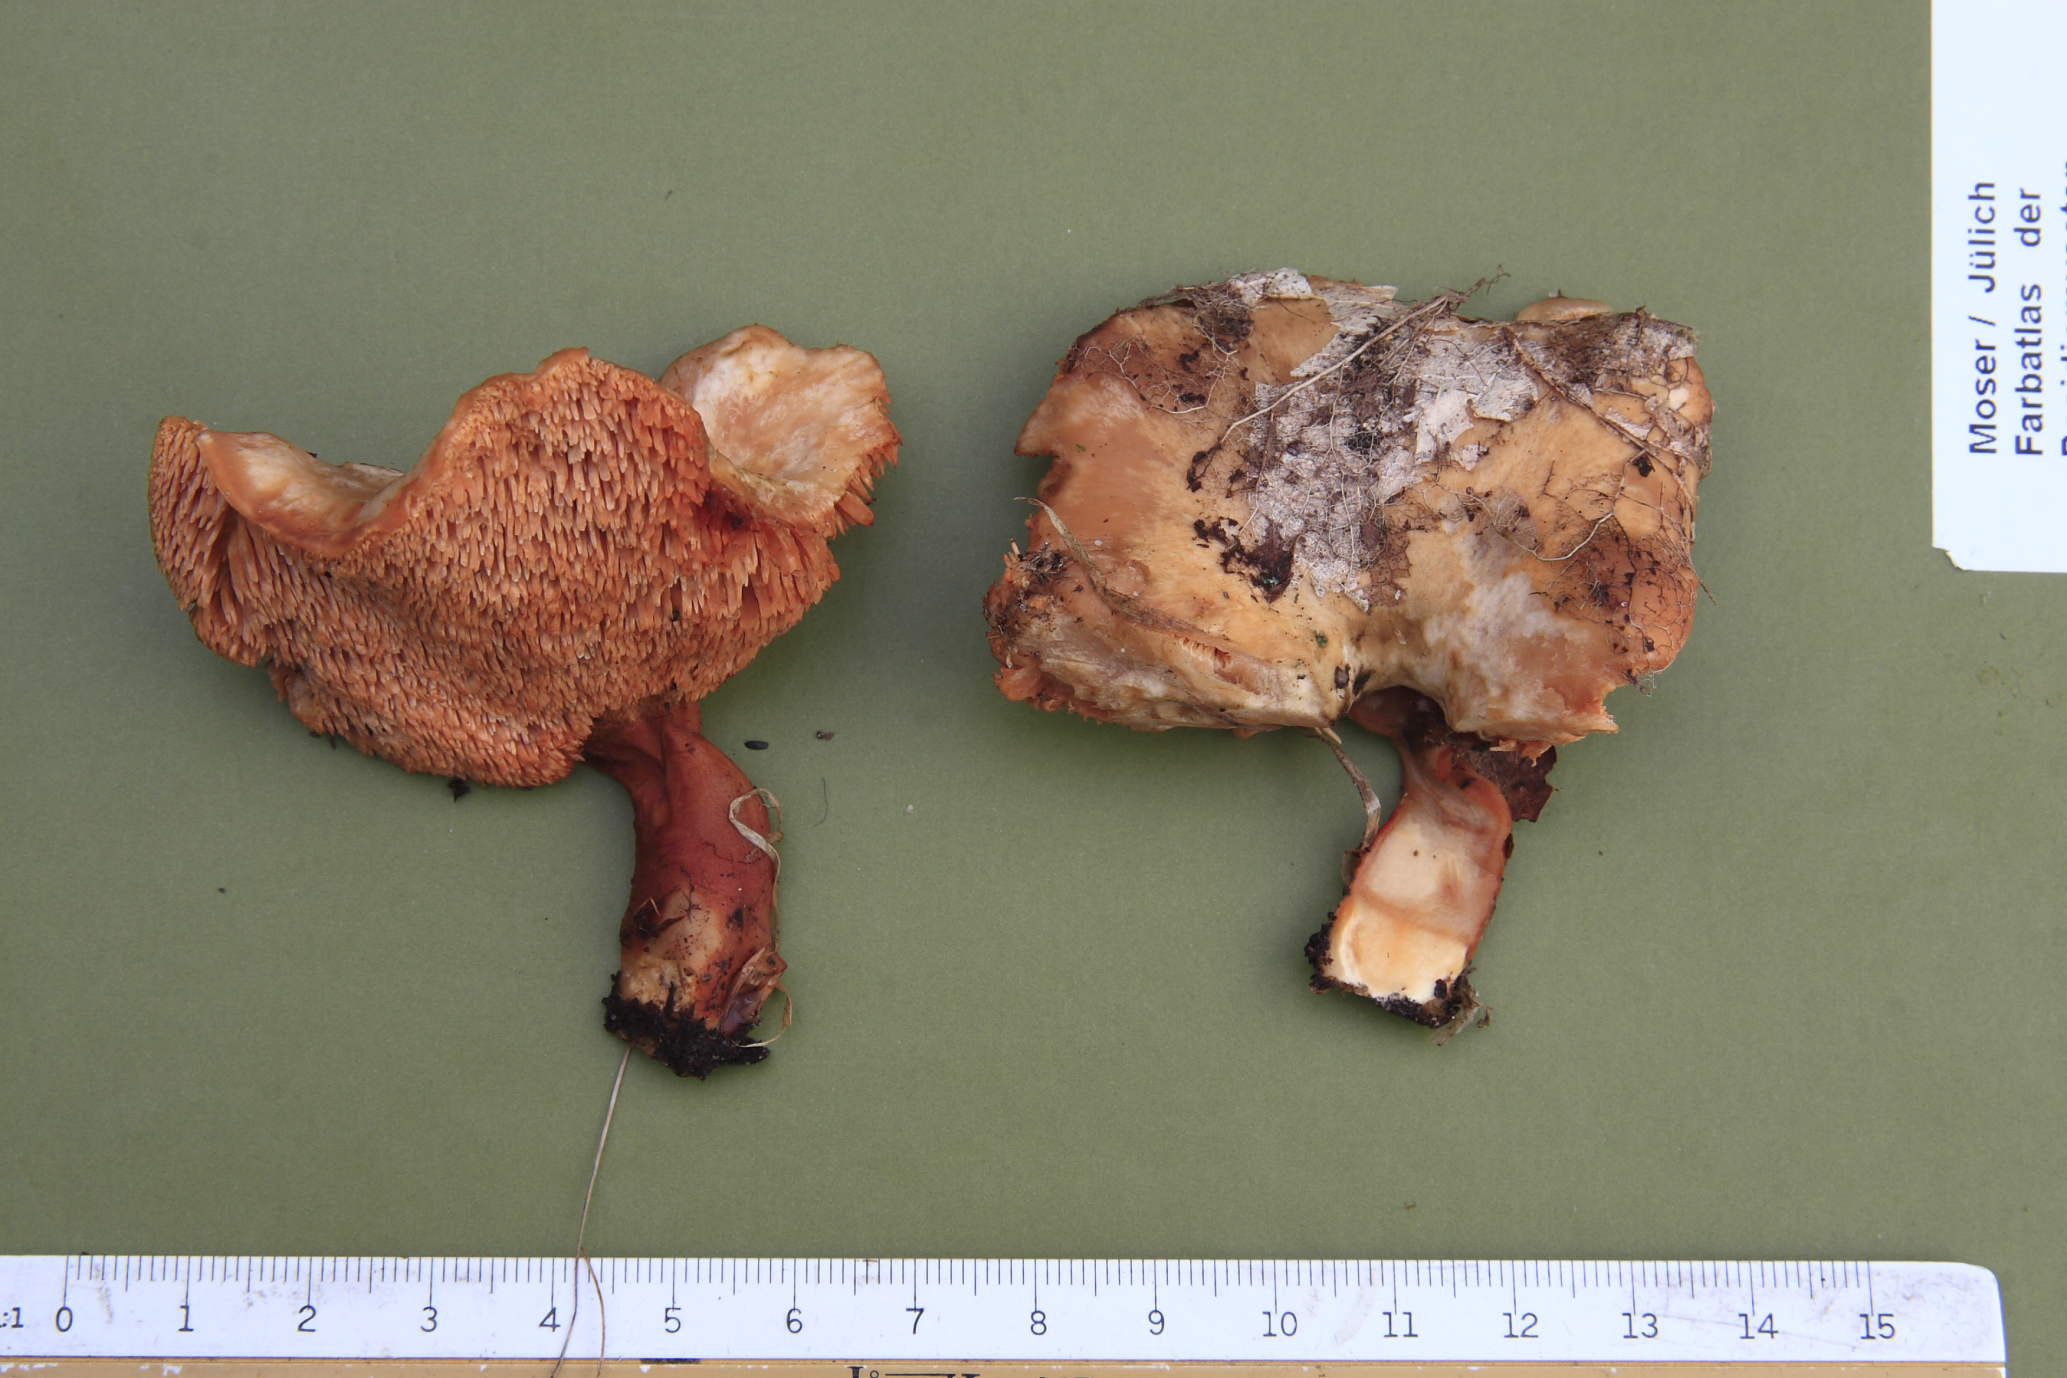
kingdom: Fungi
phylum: Basidiomycota
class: Agaricomycetes
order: Cantharellales
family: Hydnaceae
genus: Hydnum
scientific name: Hydnum rufescens
